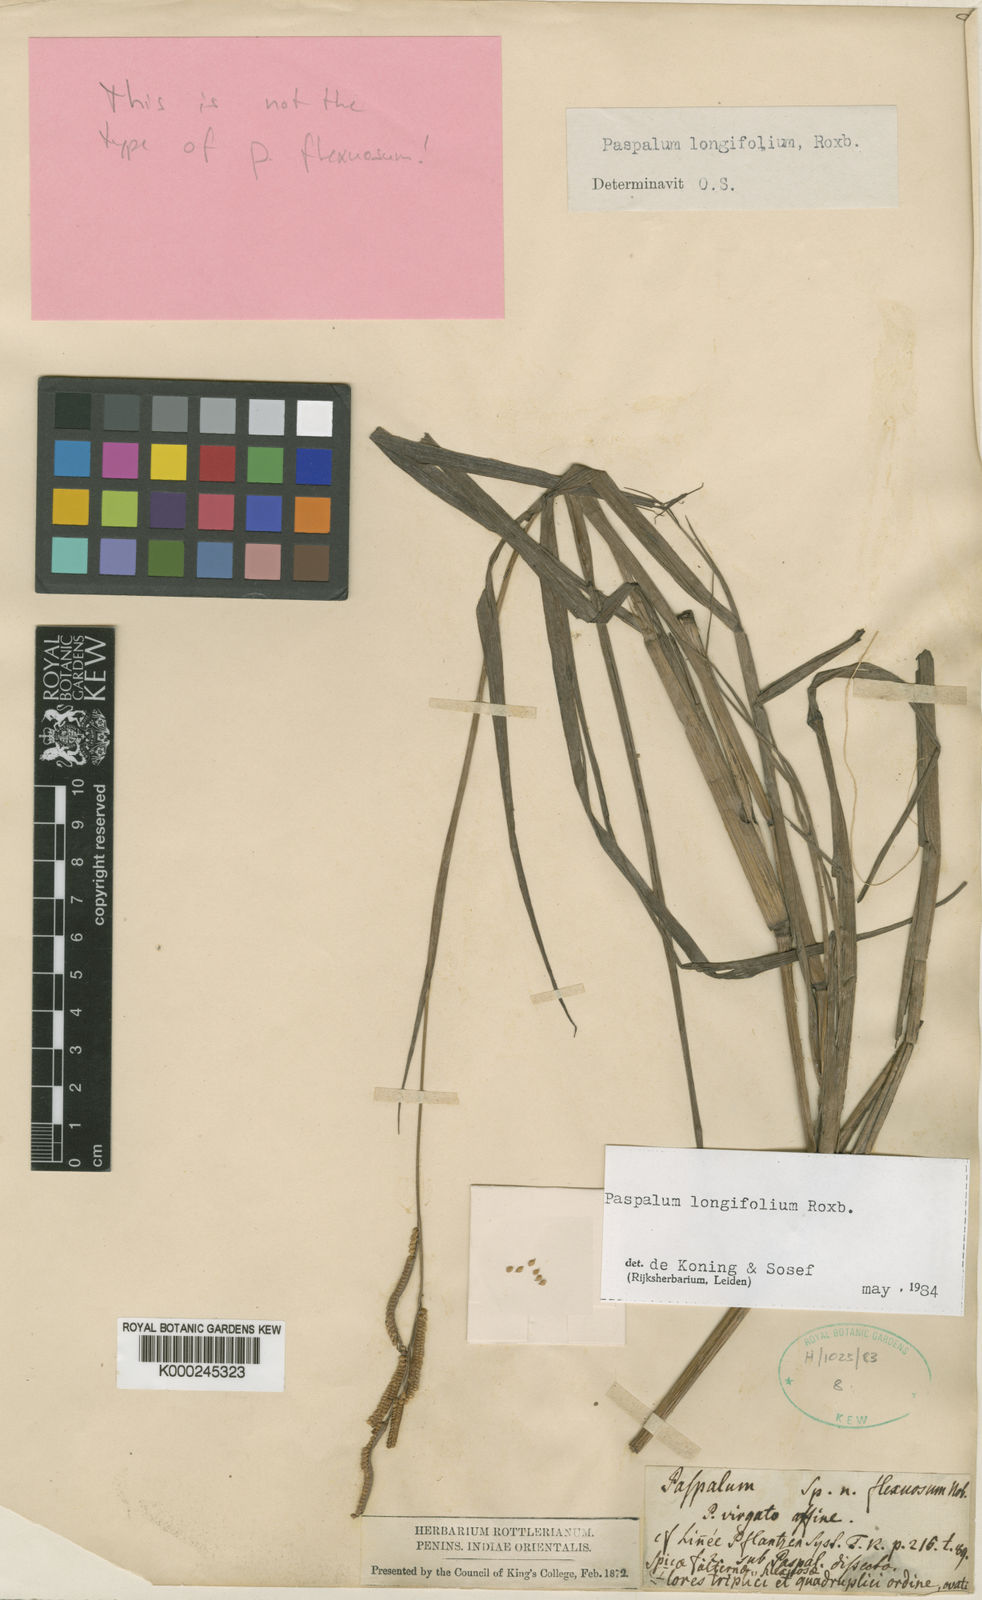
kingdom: Plantae
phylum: Tracheophyta
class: Liliopsida
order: Poales
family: Poaceae
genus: Paspalum
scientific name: Paspalum sumatrense
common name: Long-leaved paspalum
